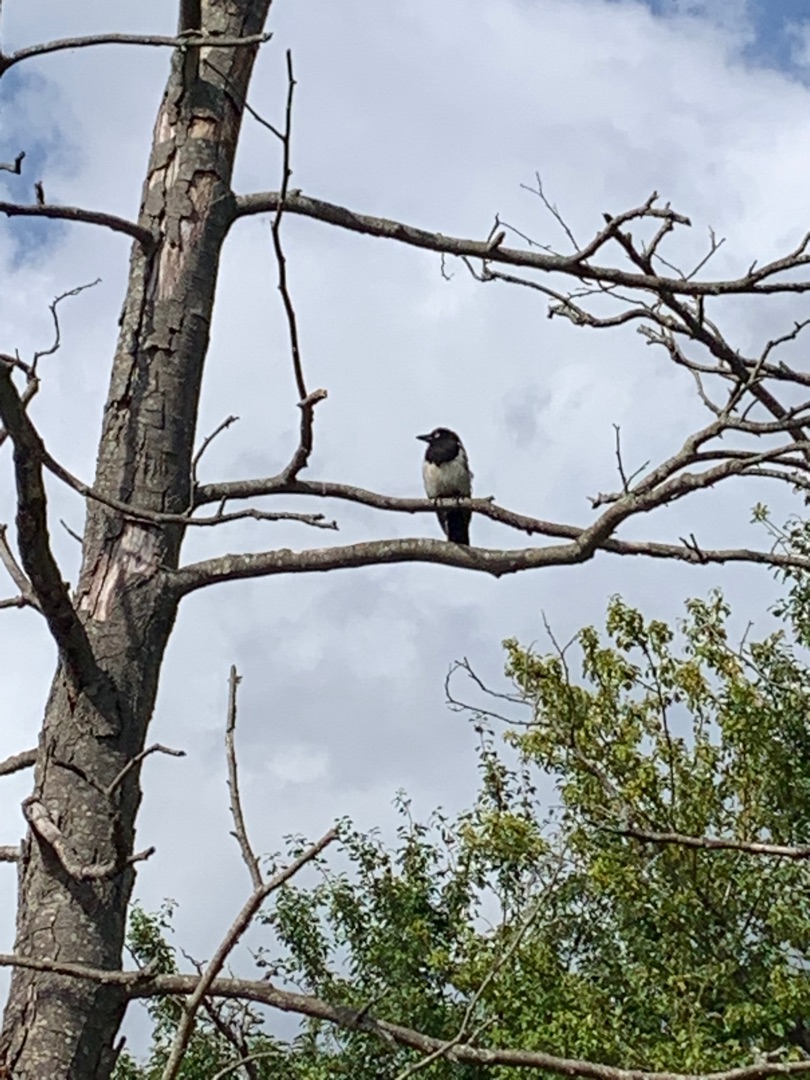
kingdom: Animalia
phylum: Chordata
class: Aves
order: Passeriformes
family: Corvidae
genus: Pica
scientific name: Pica pica
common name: Husskade
